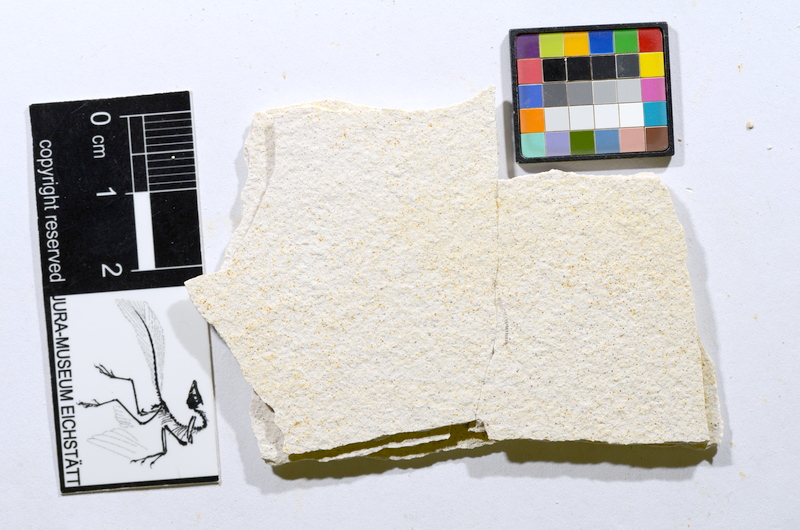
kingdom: Animalia
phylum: Chordata
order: Salmoniformes
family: Orthogonikleithridae
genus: Orthogonikleithrus
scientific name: Orthogonikleithrus hoelli
